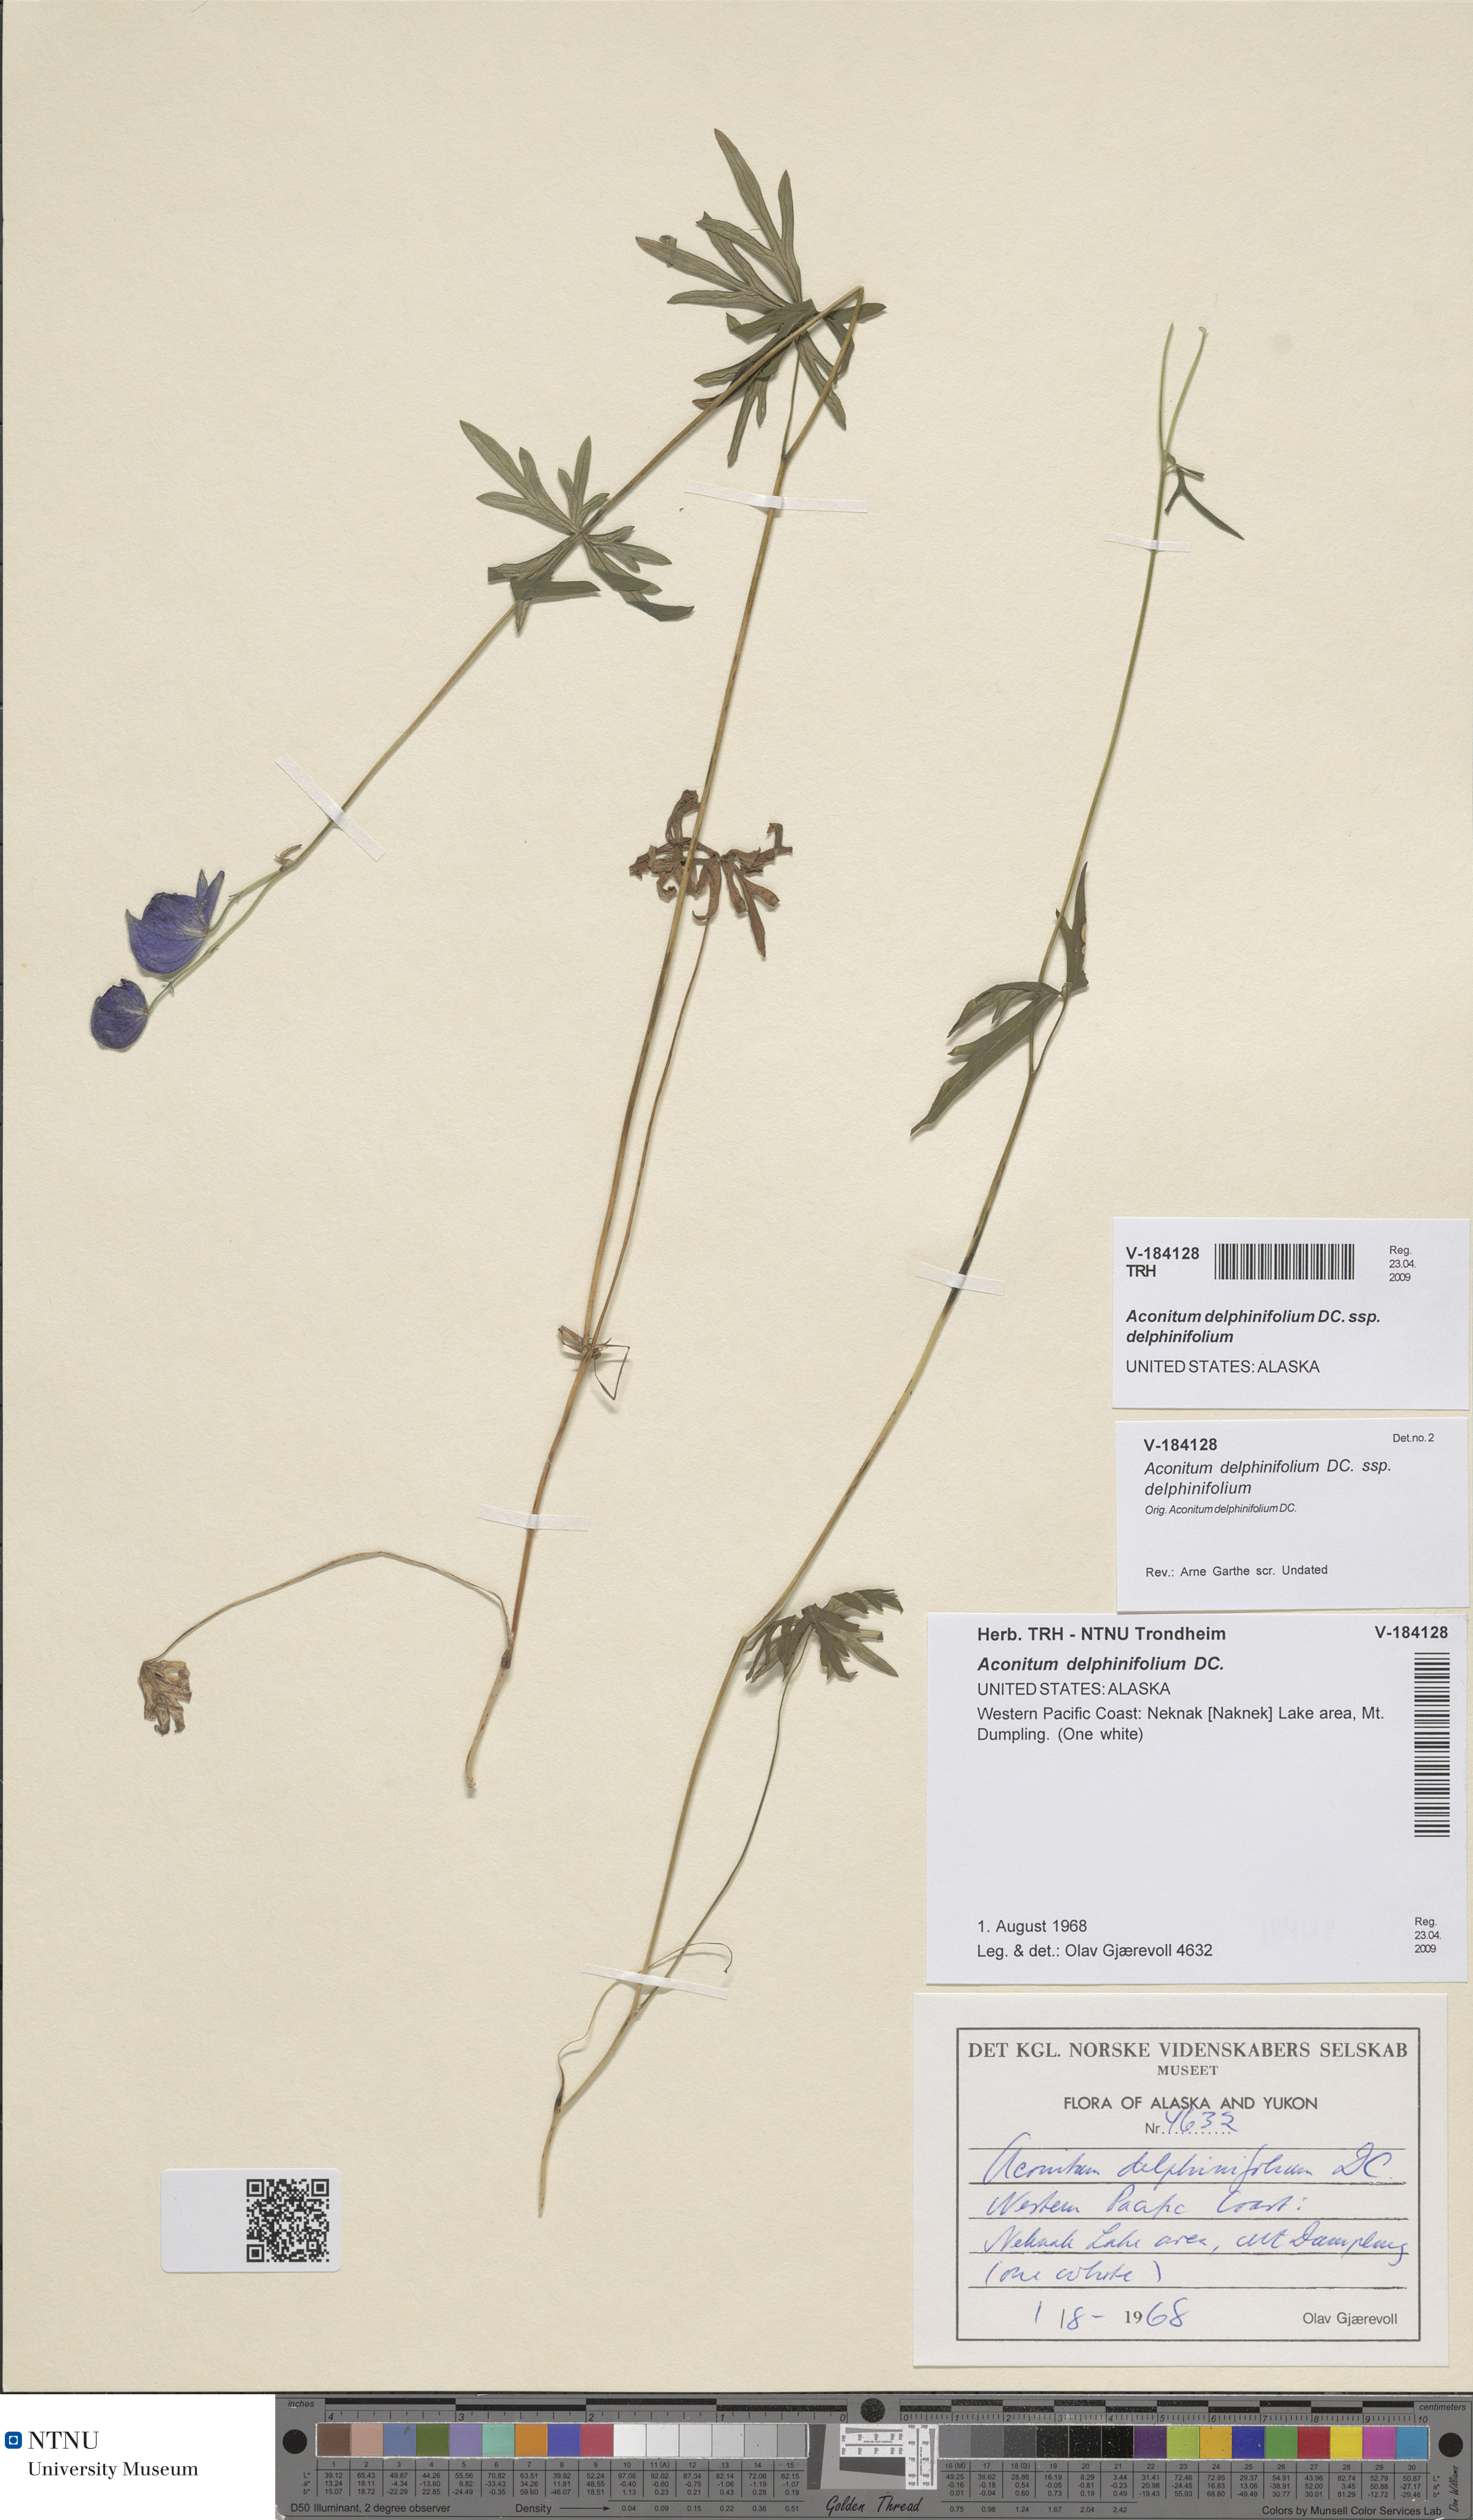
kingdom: Plantae
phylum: Tracheophyta
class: Magnoliopsida
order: Ranunculales
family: Ranunculaceae
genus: Aconitum
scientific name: Aconitum delphinifolium
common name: Larkspur-leaved monkshood
